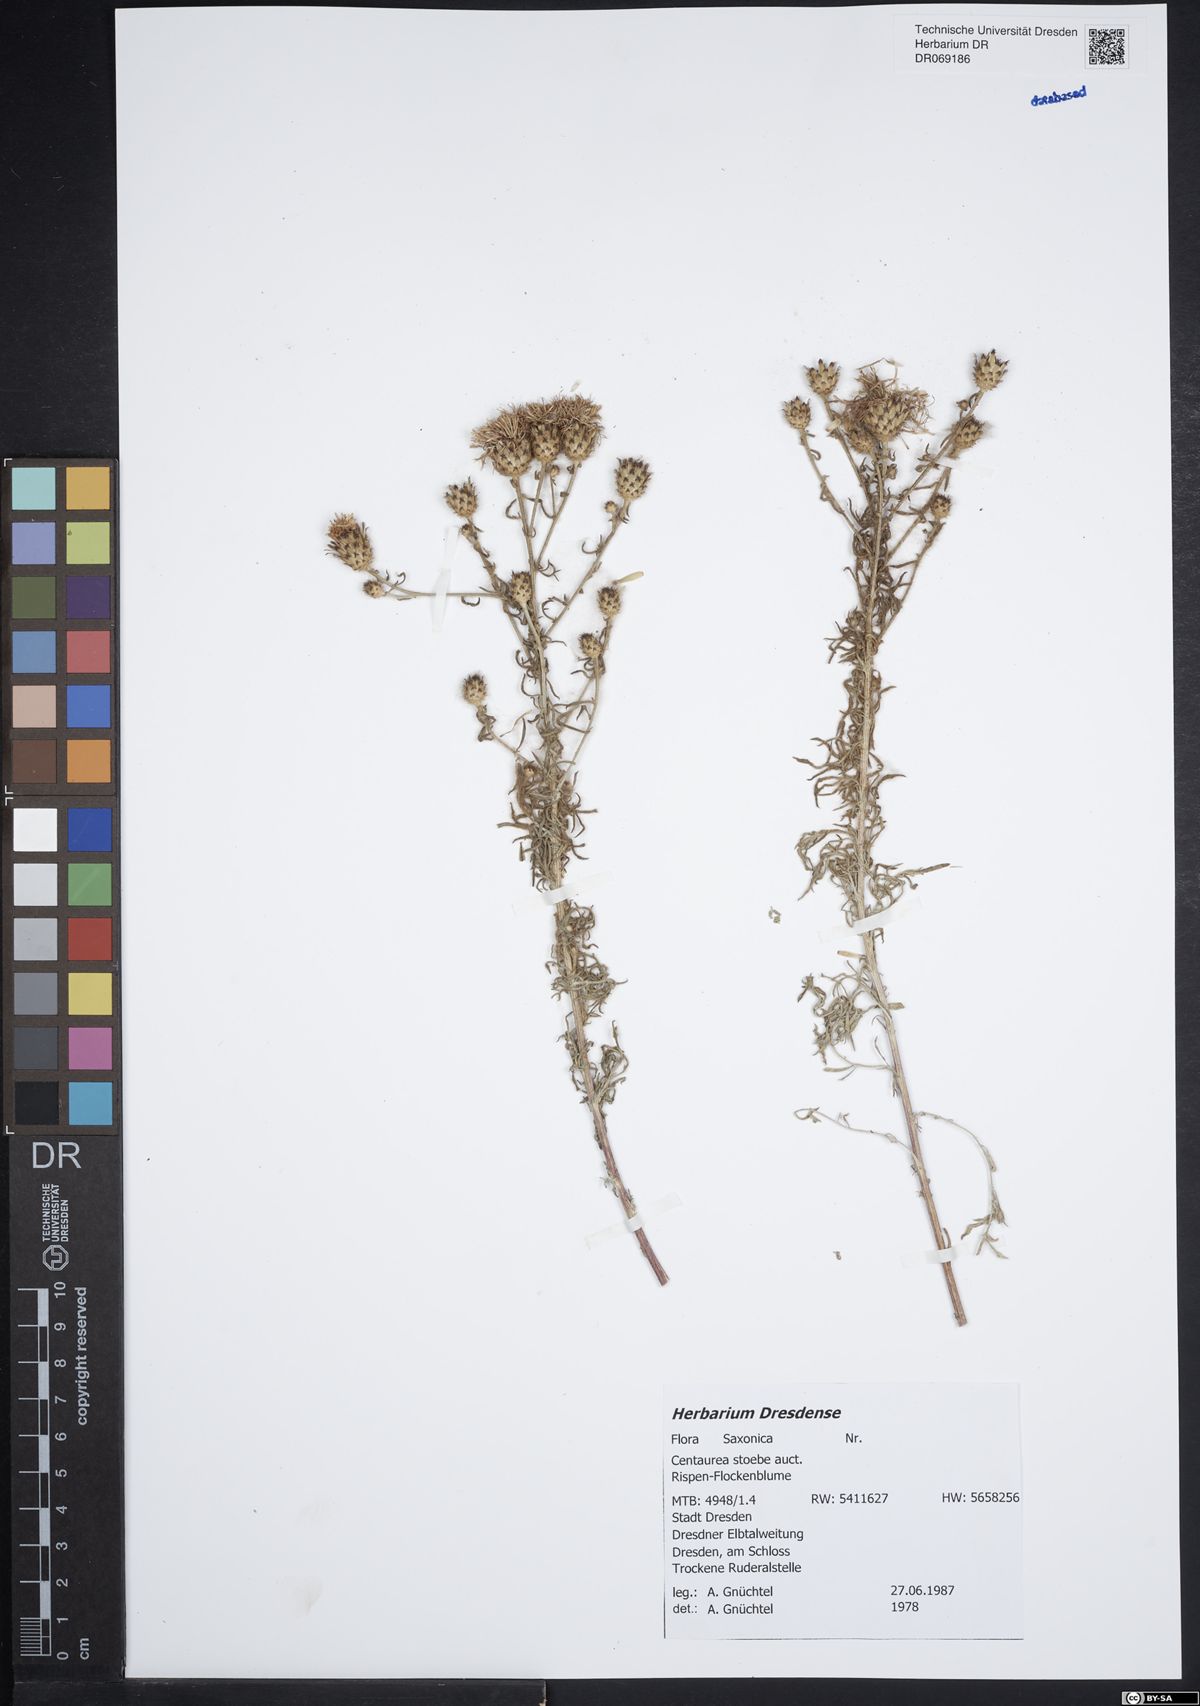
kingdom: Plantae
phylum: Tracheophyta
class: Magnoliopsida
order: Asterales
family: Asteraceae
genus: Centaurea
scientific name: Centaurea stoebe
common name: Spotted knapweed
